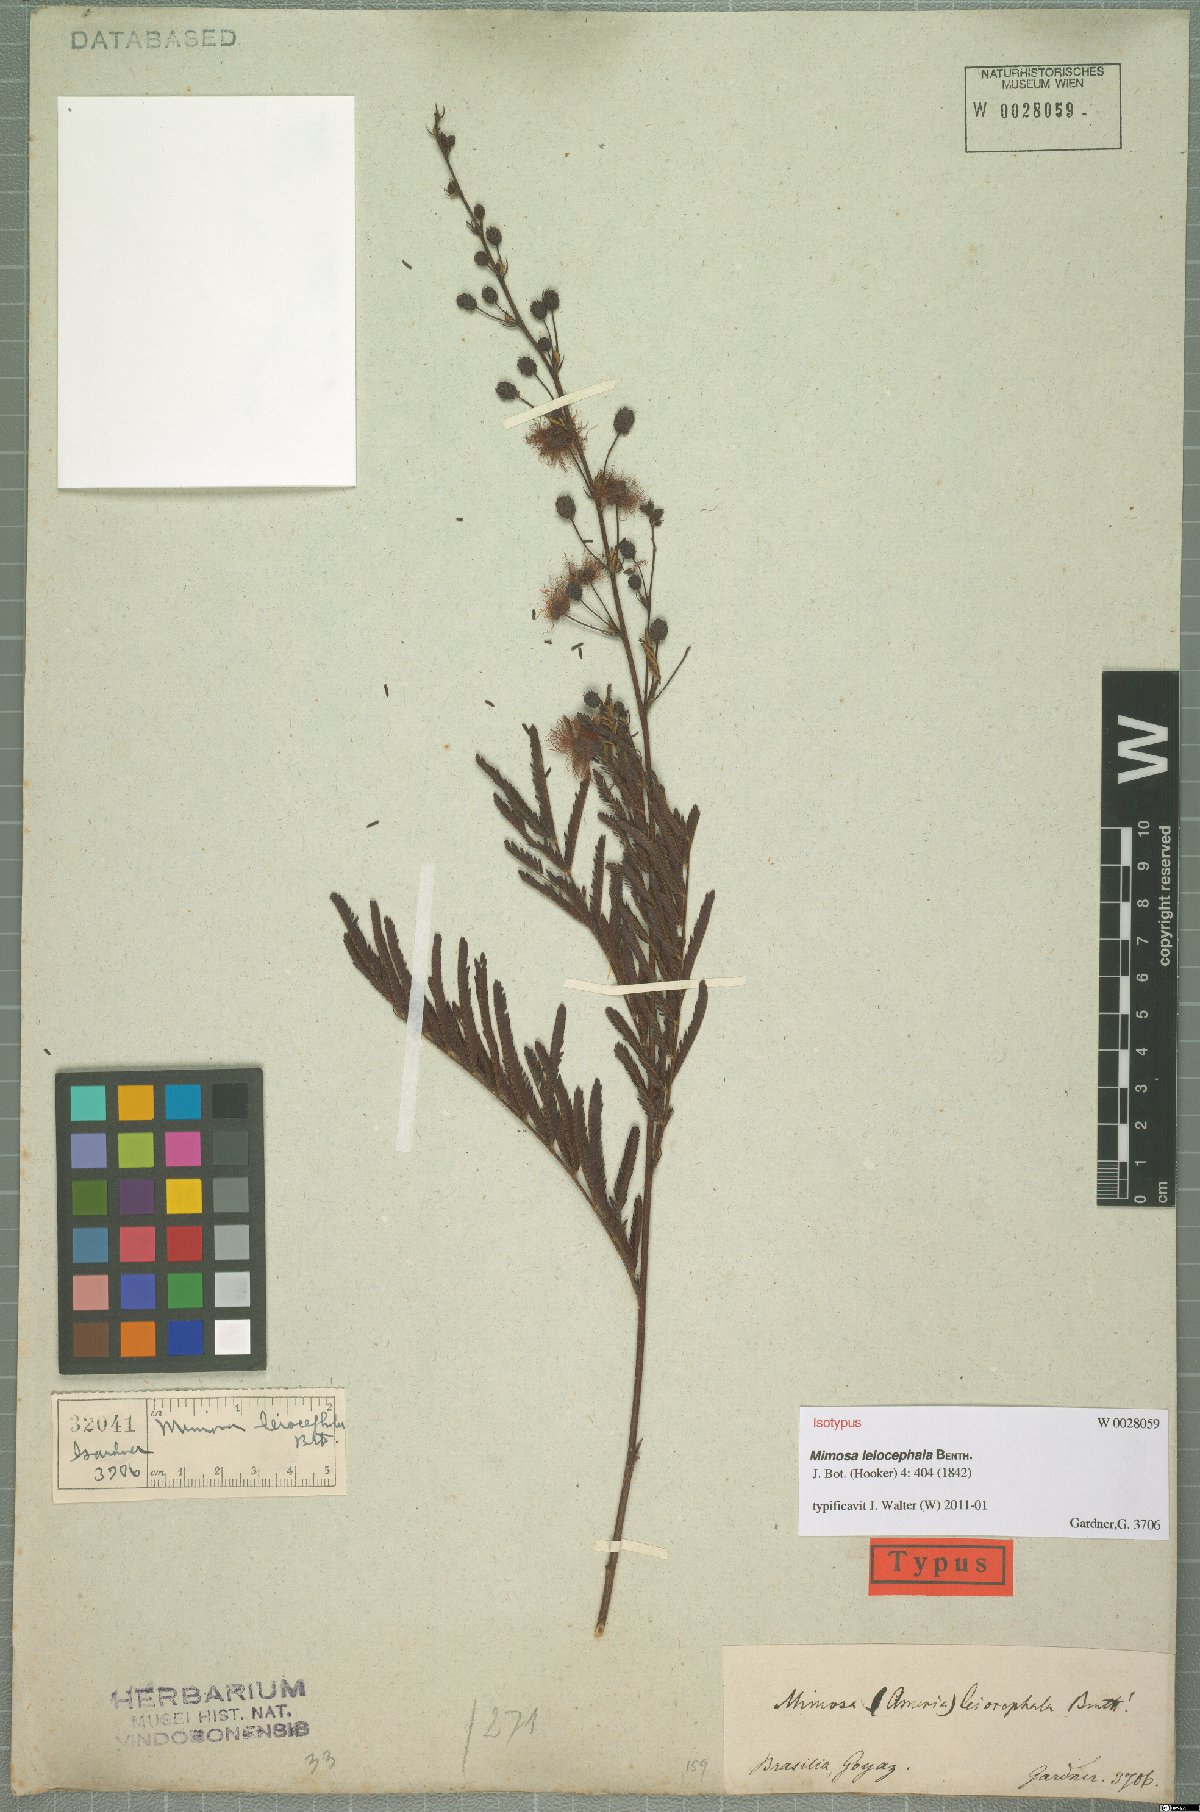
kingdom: Plantae
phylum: Tracheophyta
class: Magnoliopsida
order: Fabales
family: Fabaceae
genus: Mimosa
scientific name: Mimosa leiocephala
